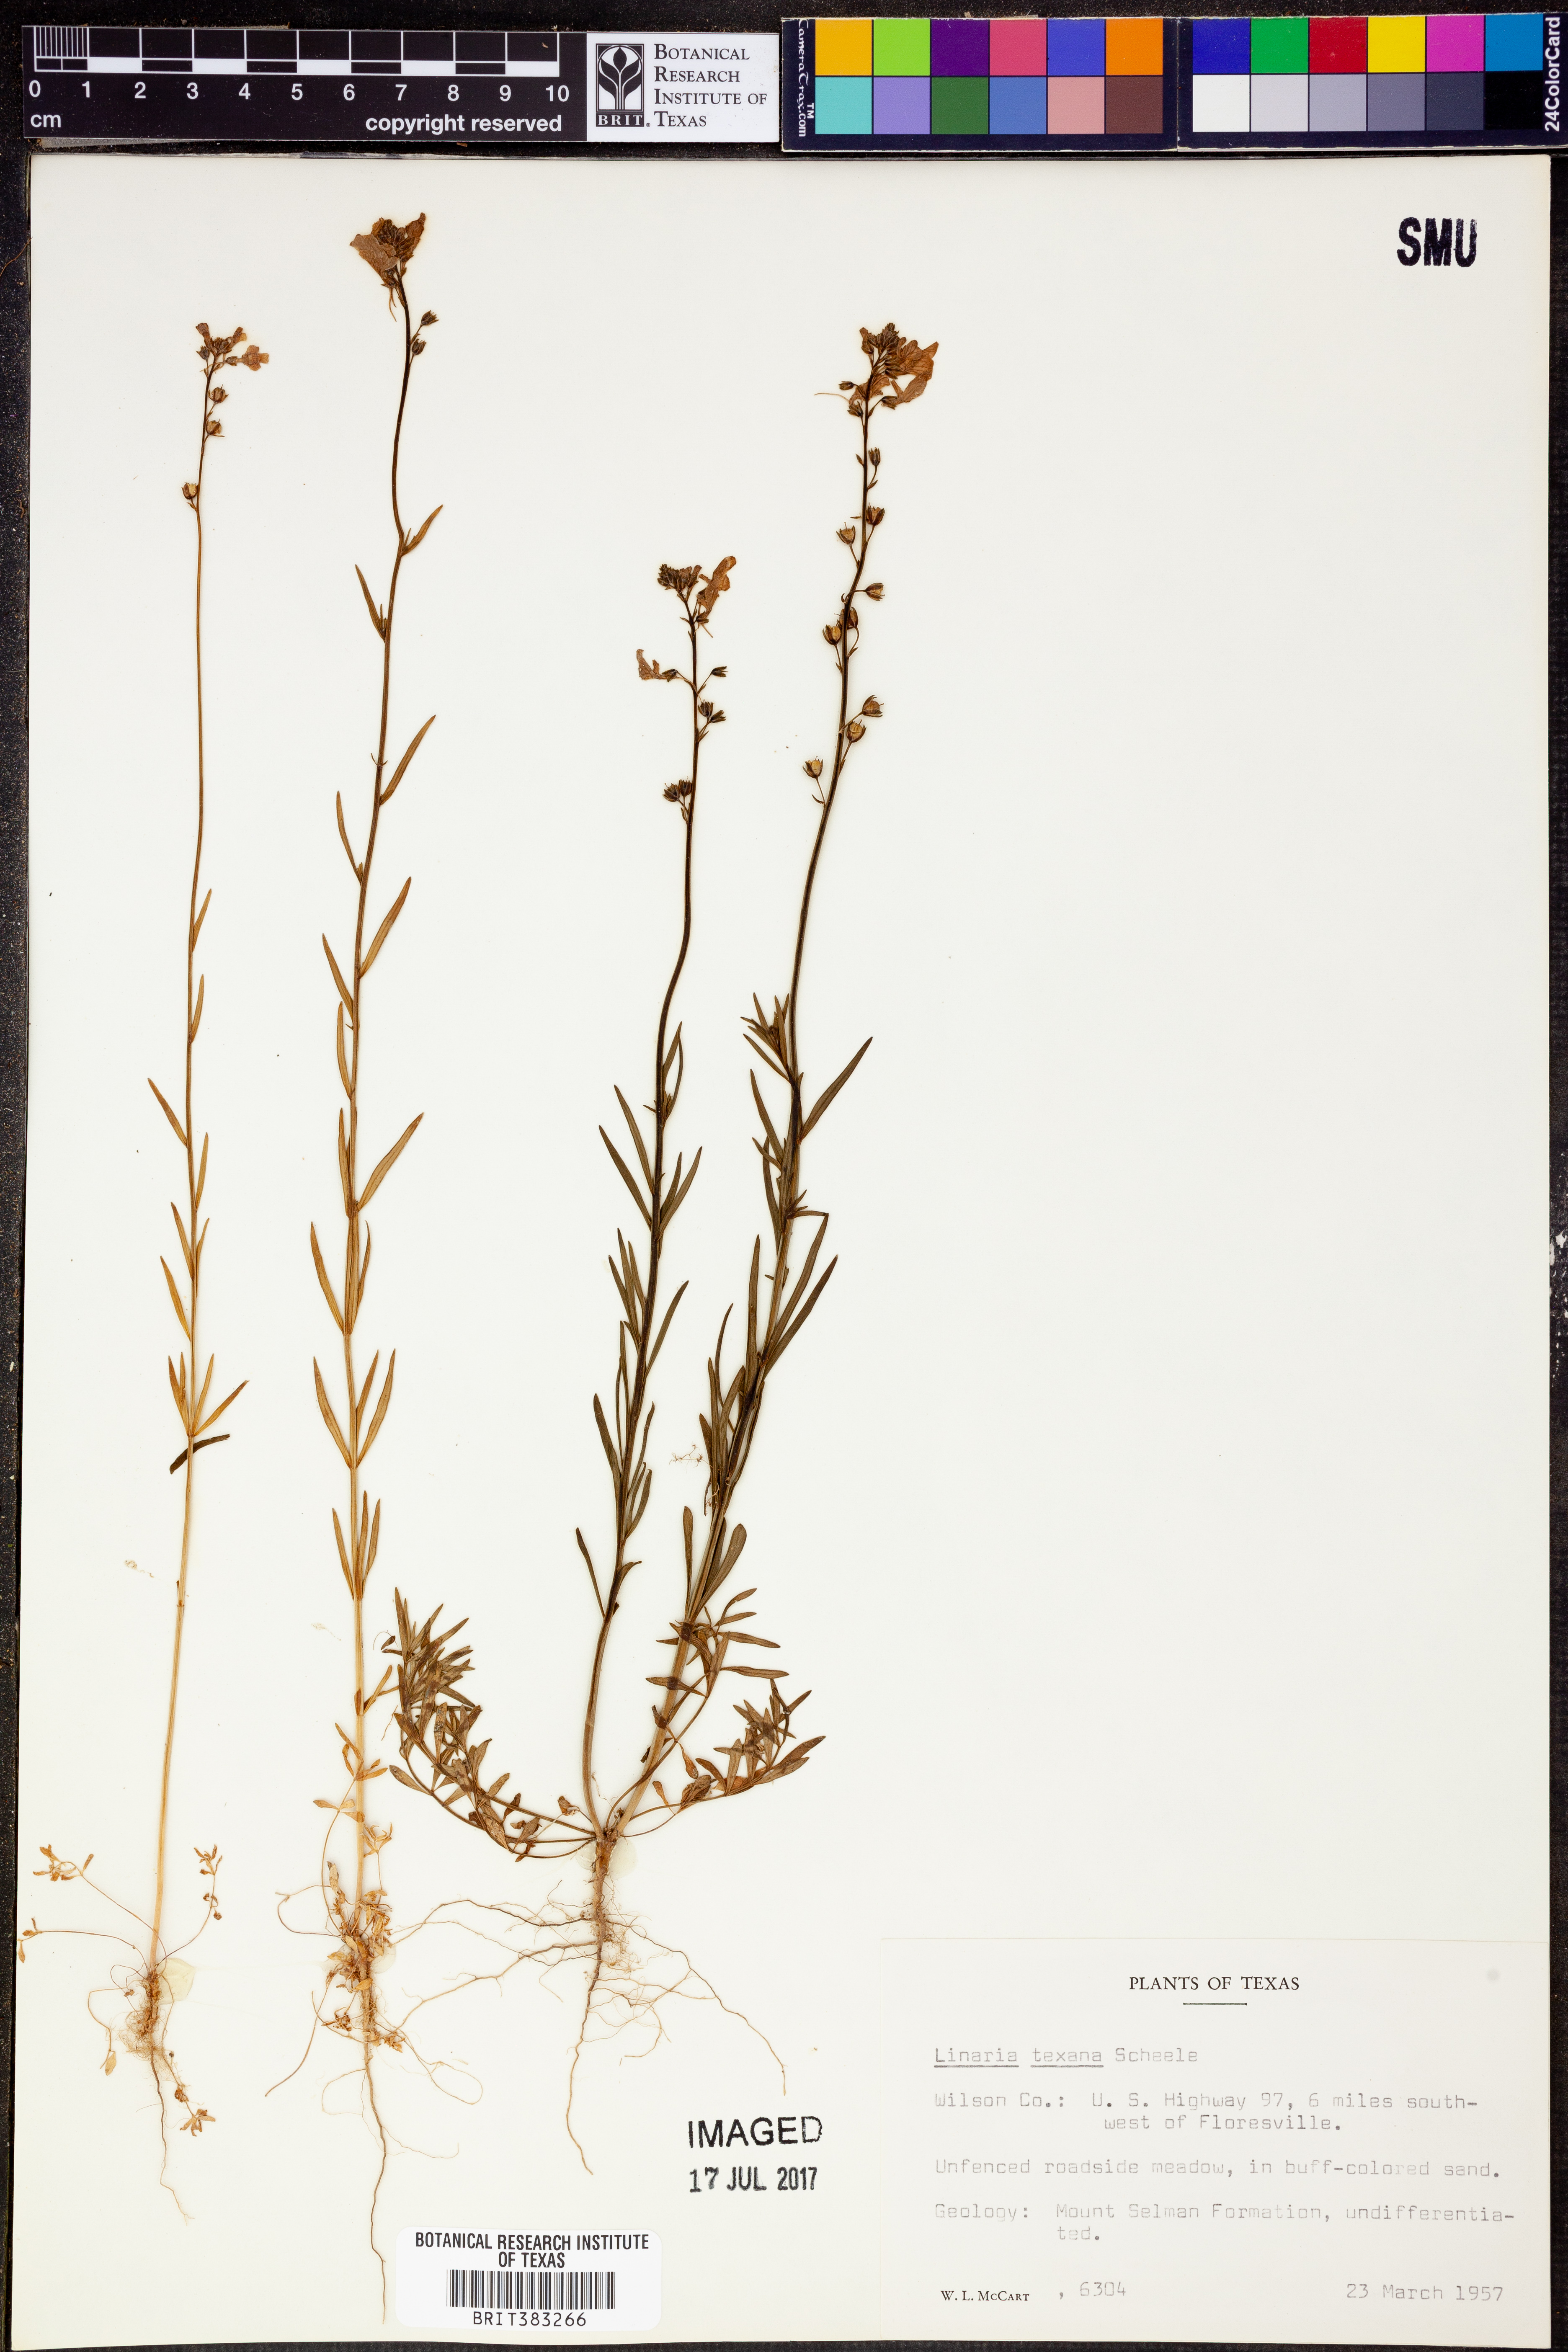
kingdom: Plantae
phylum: Tracheophyta
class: Magnoliopsida
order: Lamiales
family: Plantaginaceae
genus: Nuttallanthus
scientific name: Nuttallanthus texanus
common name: Texas toadflax
